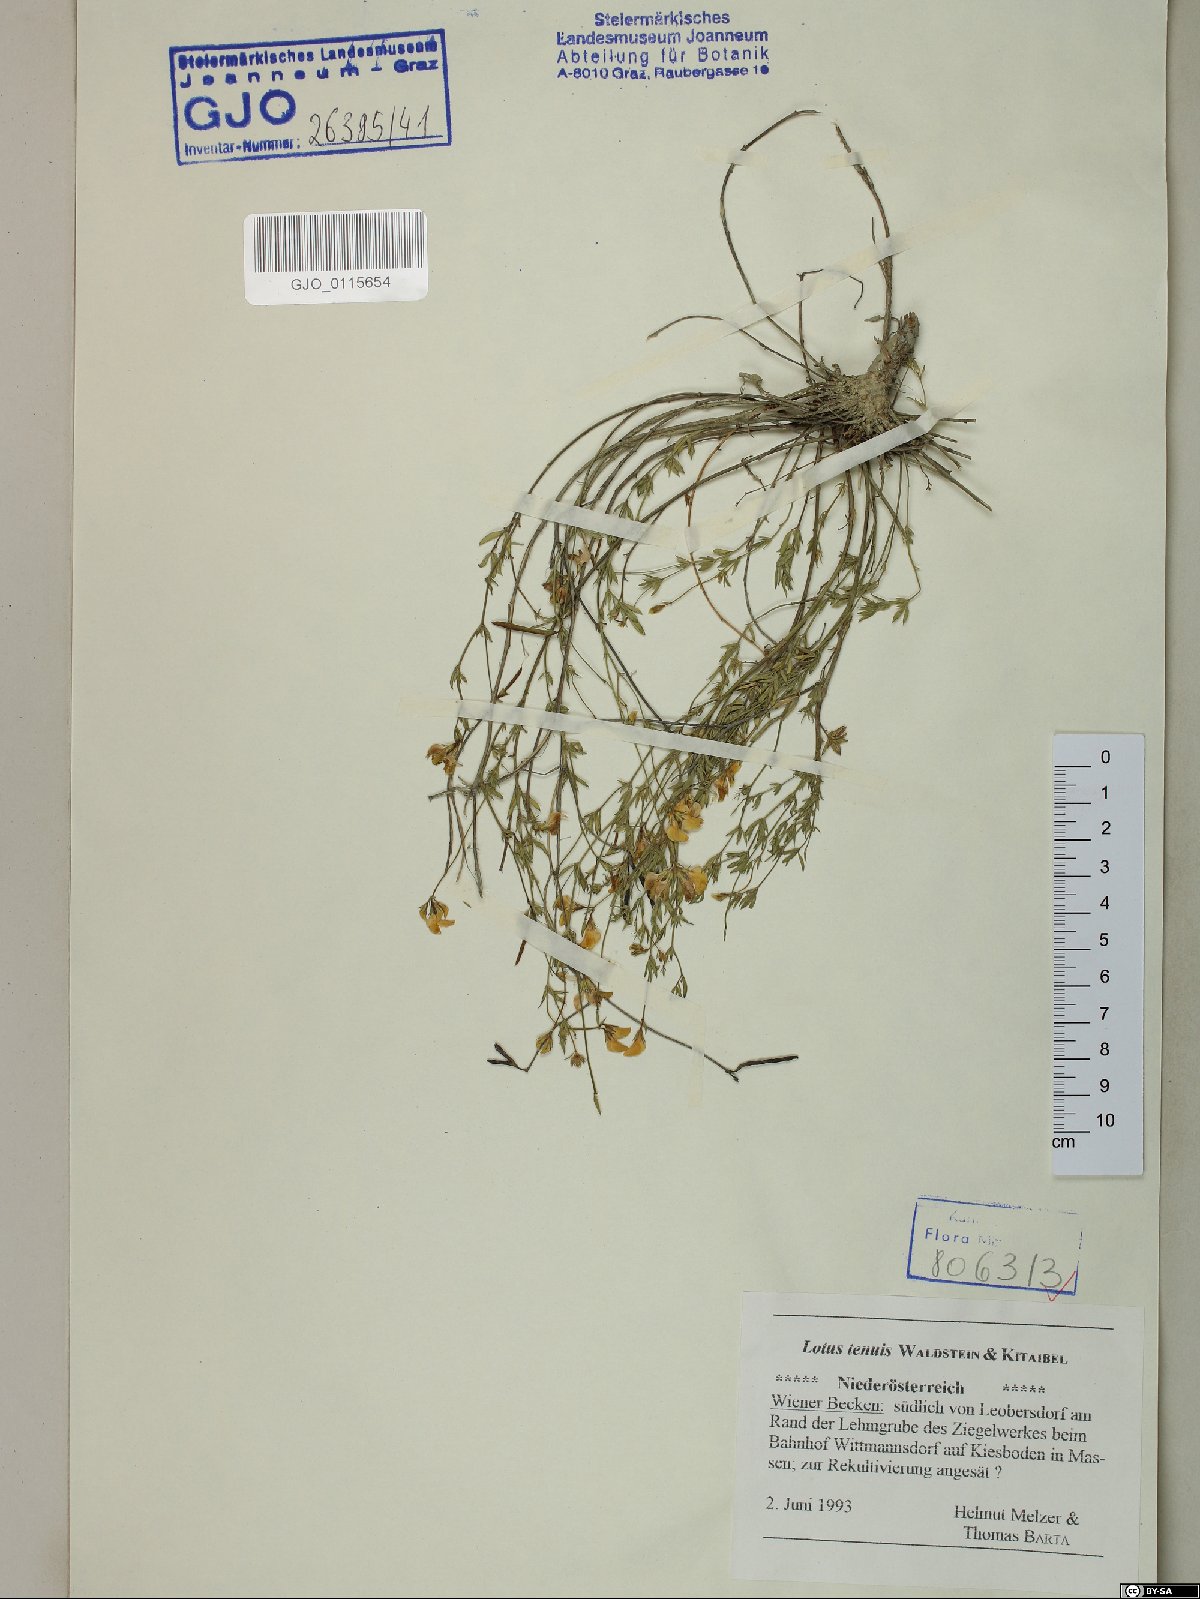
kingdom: Plantae
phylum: Tracheophyta
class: Magnoliopsida
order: Fabales
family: Fabaceae
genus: Lotus
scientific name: Lotus tenuis
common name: Narrow-leaved bird's-foot-trefoil
